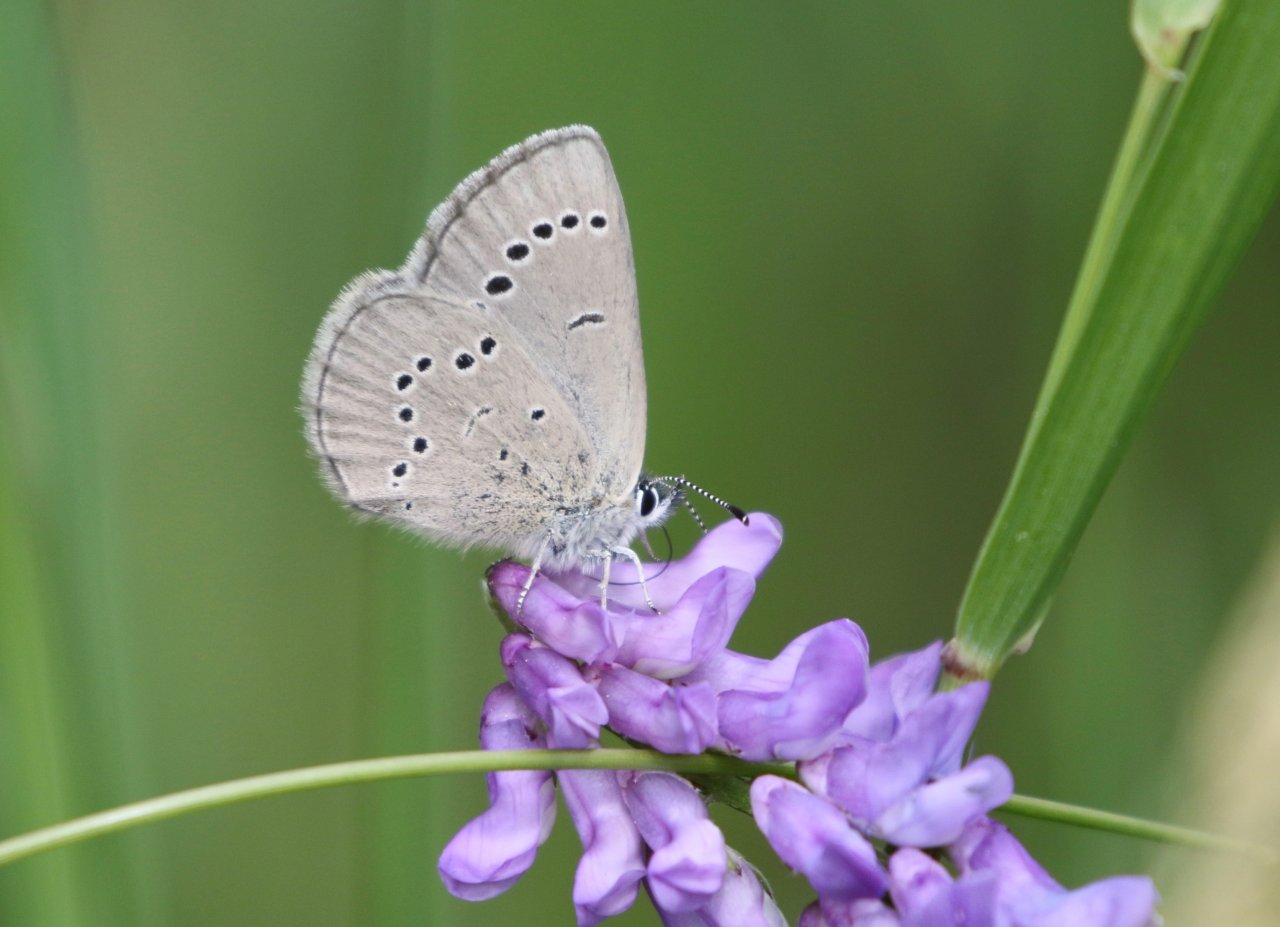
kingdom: Animalia
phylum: Arthropoda
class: Insecta
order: Lepidoptera
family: Lycaenidae
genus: Glaucopsyche
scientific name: Glaucopsyche lygdamus
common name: Silvery Blue
